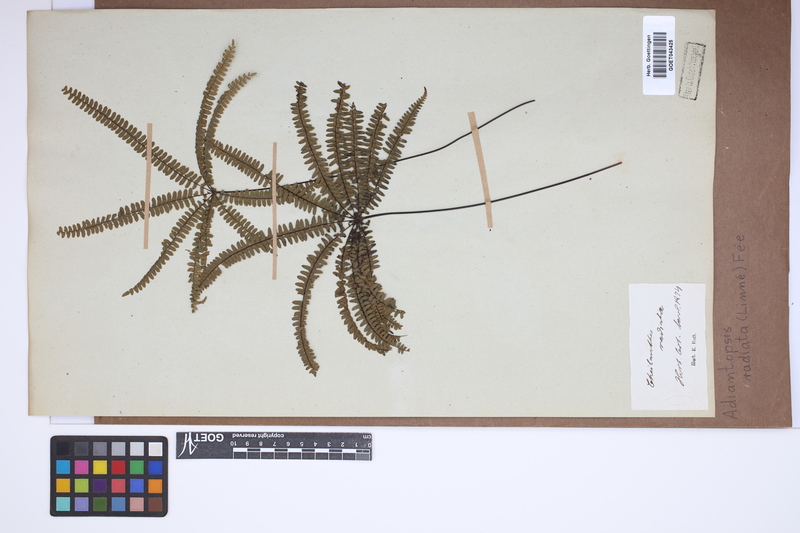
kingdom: Plantae
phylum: Tracheophyta
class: Polypodiopsida
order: Polypodiales
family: Pteridaceae
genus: Adiantopsis
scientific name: Adiantopsis radiata
